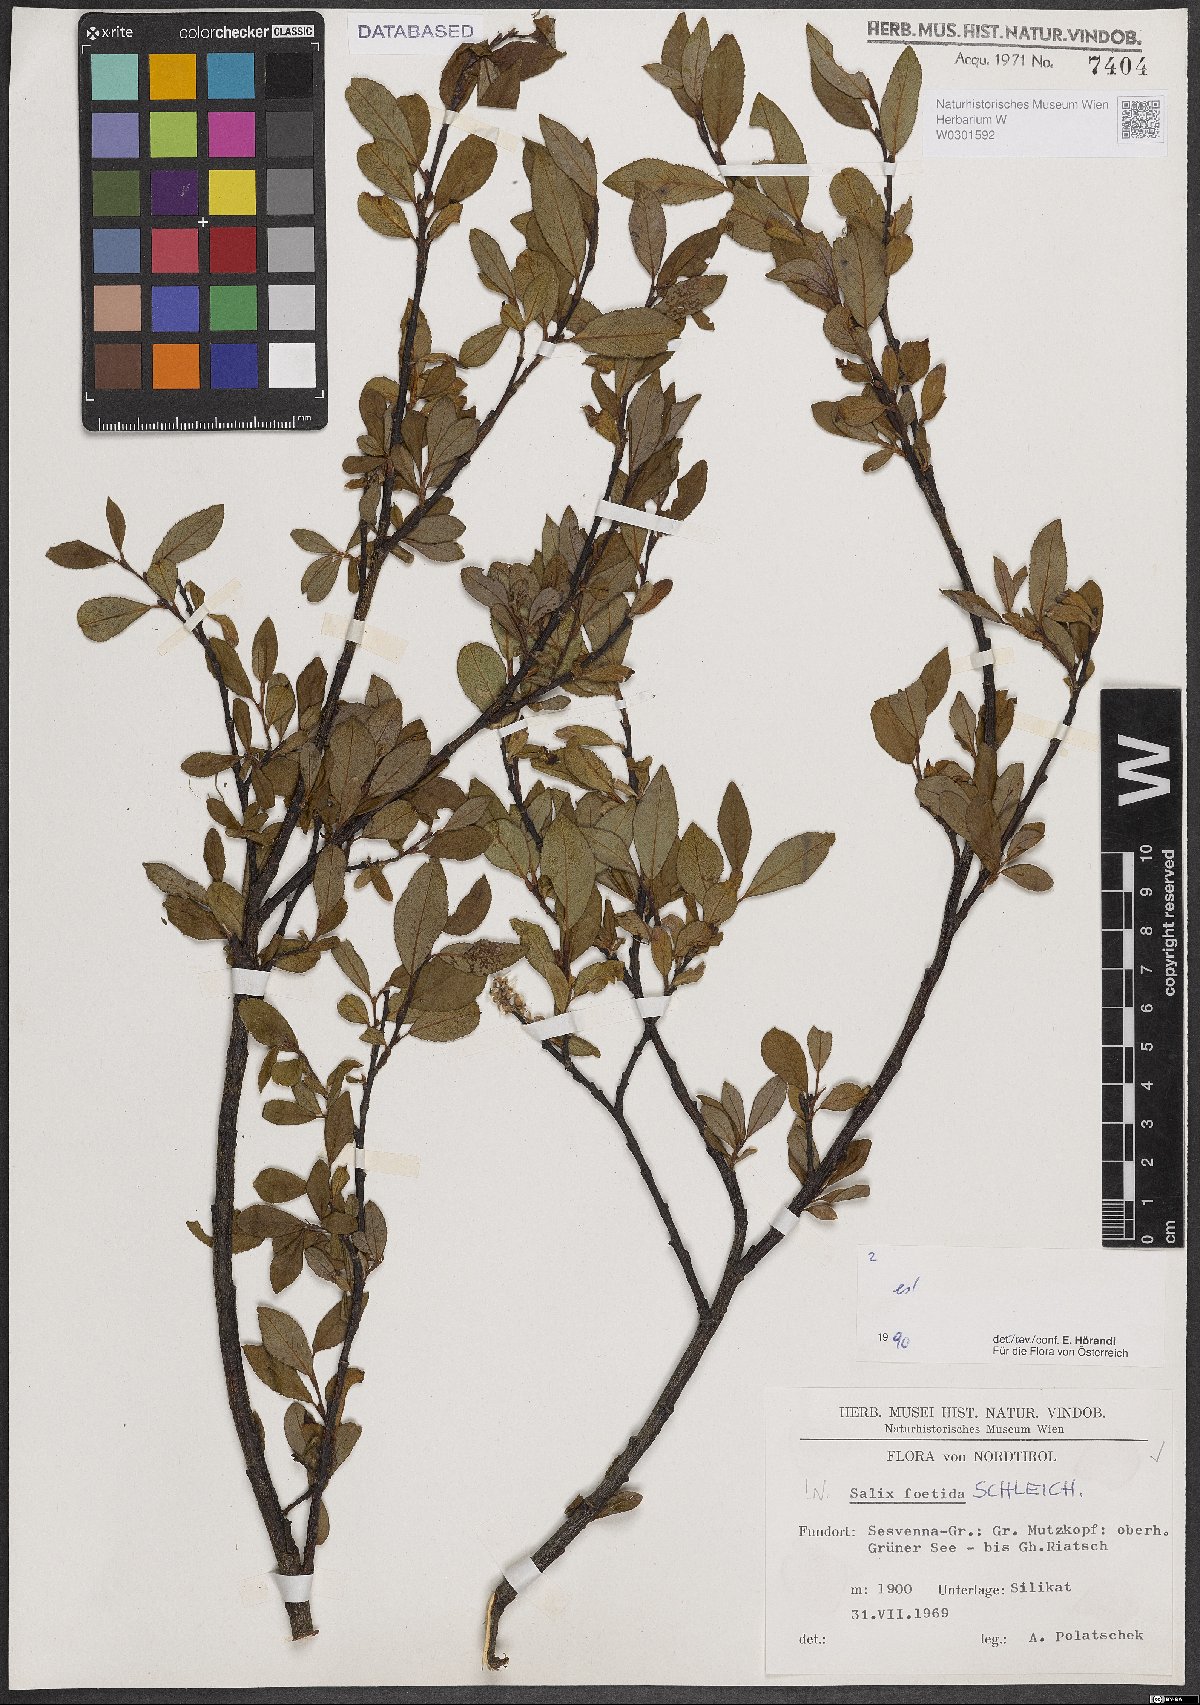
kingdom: Plantae
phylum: Tracheophyta
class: Magnoliopsida
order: Malpighiales
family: Salicaceae
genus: Salix
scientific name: Salix foetida
